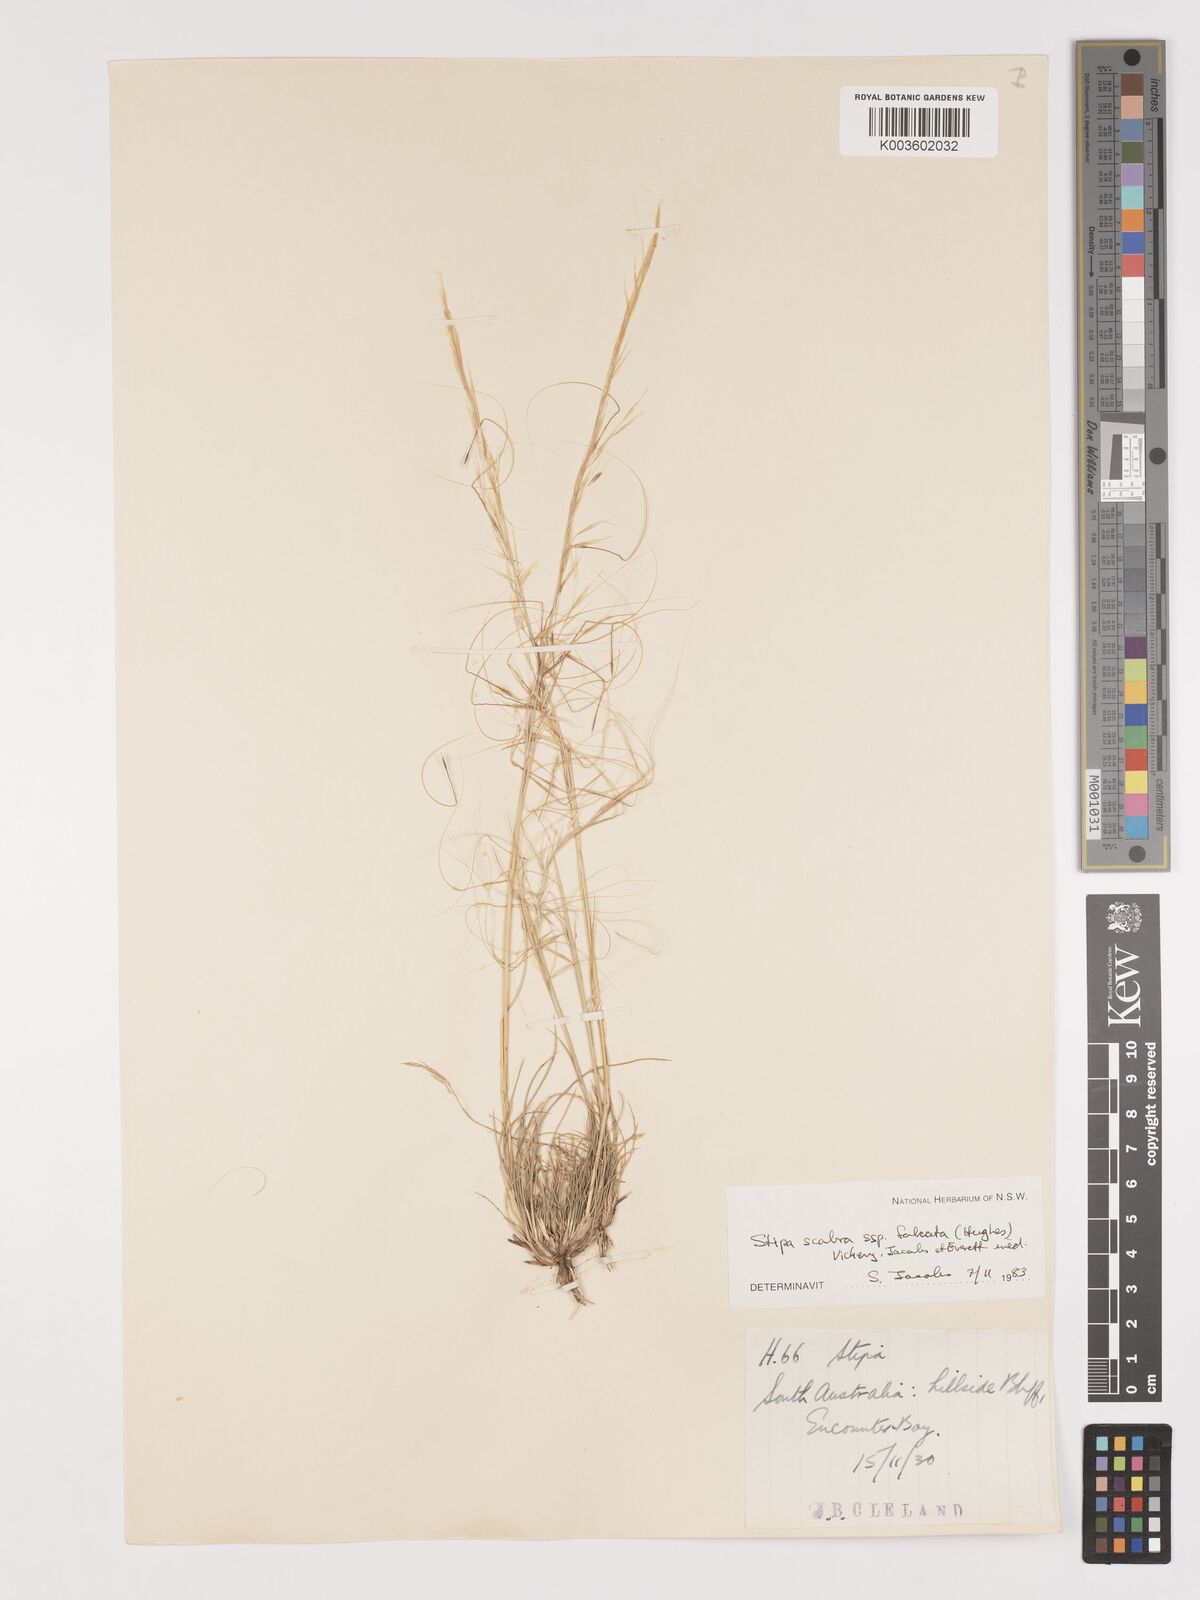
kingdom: Plantae
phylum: Tracheophyta
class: Liliopsida
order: Poales
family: Poaceae
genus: Austrostipa
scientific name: Austrostipa scabra
